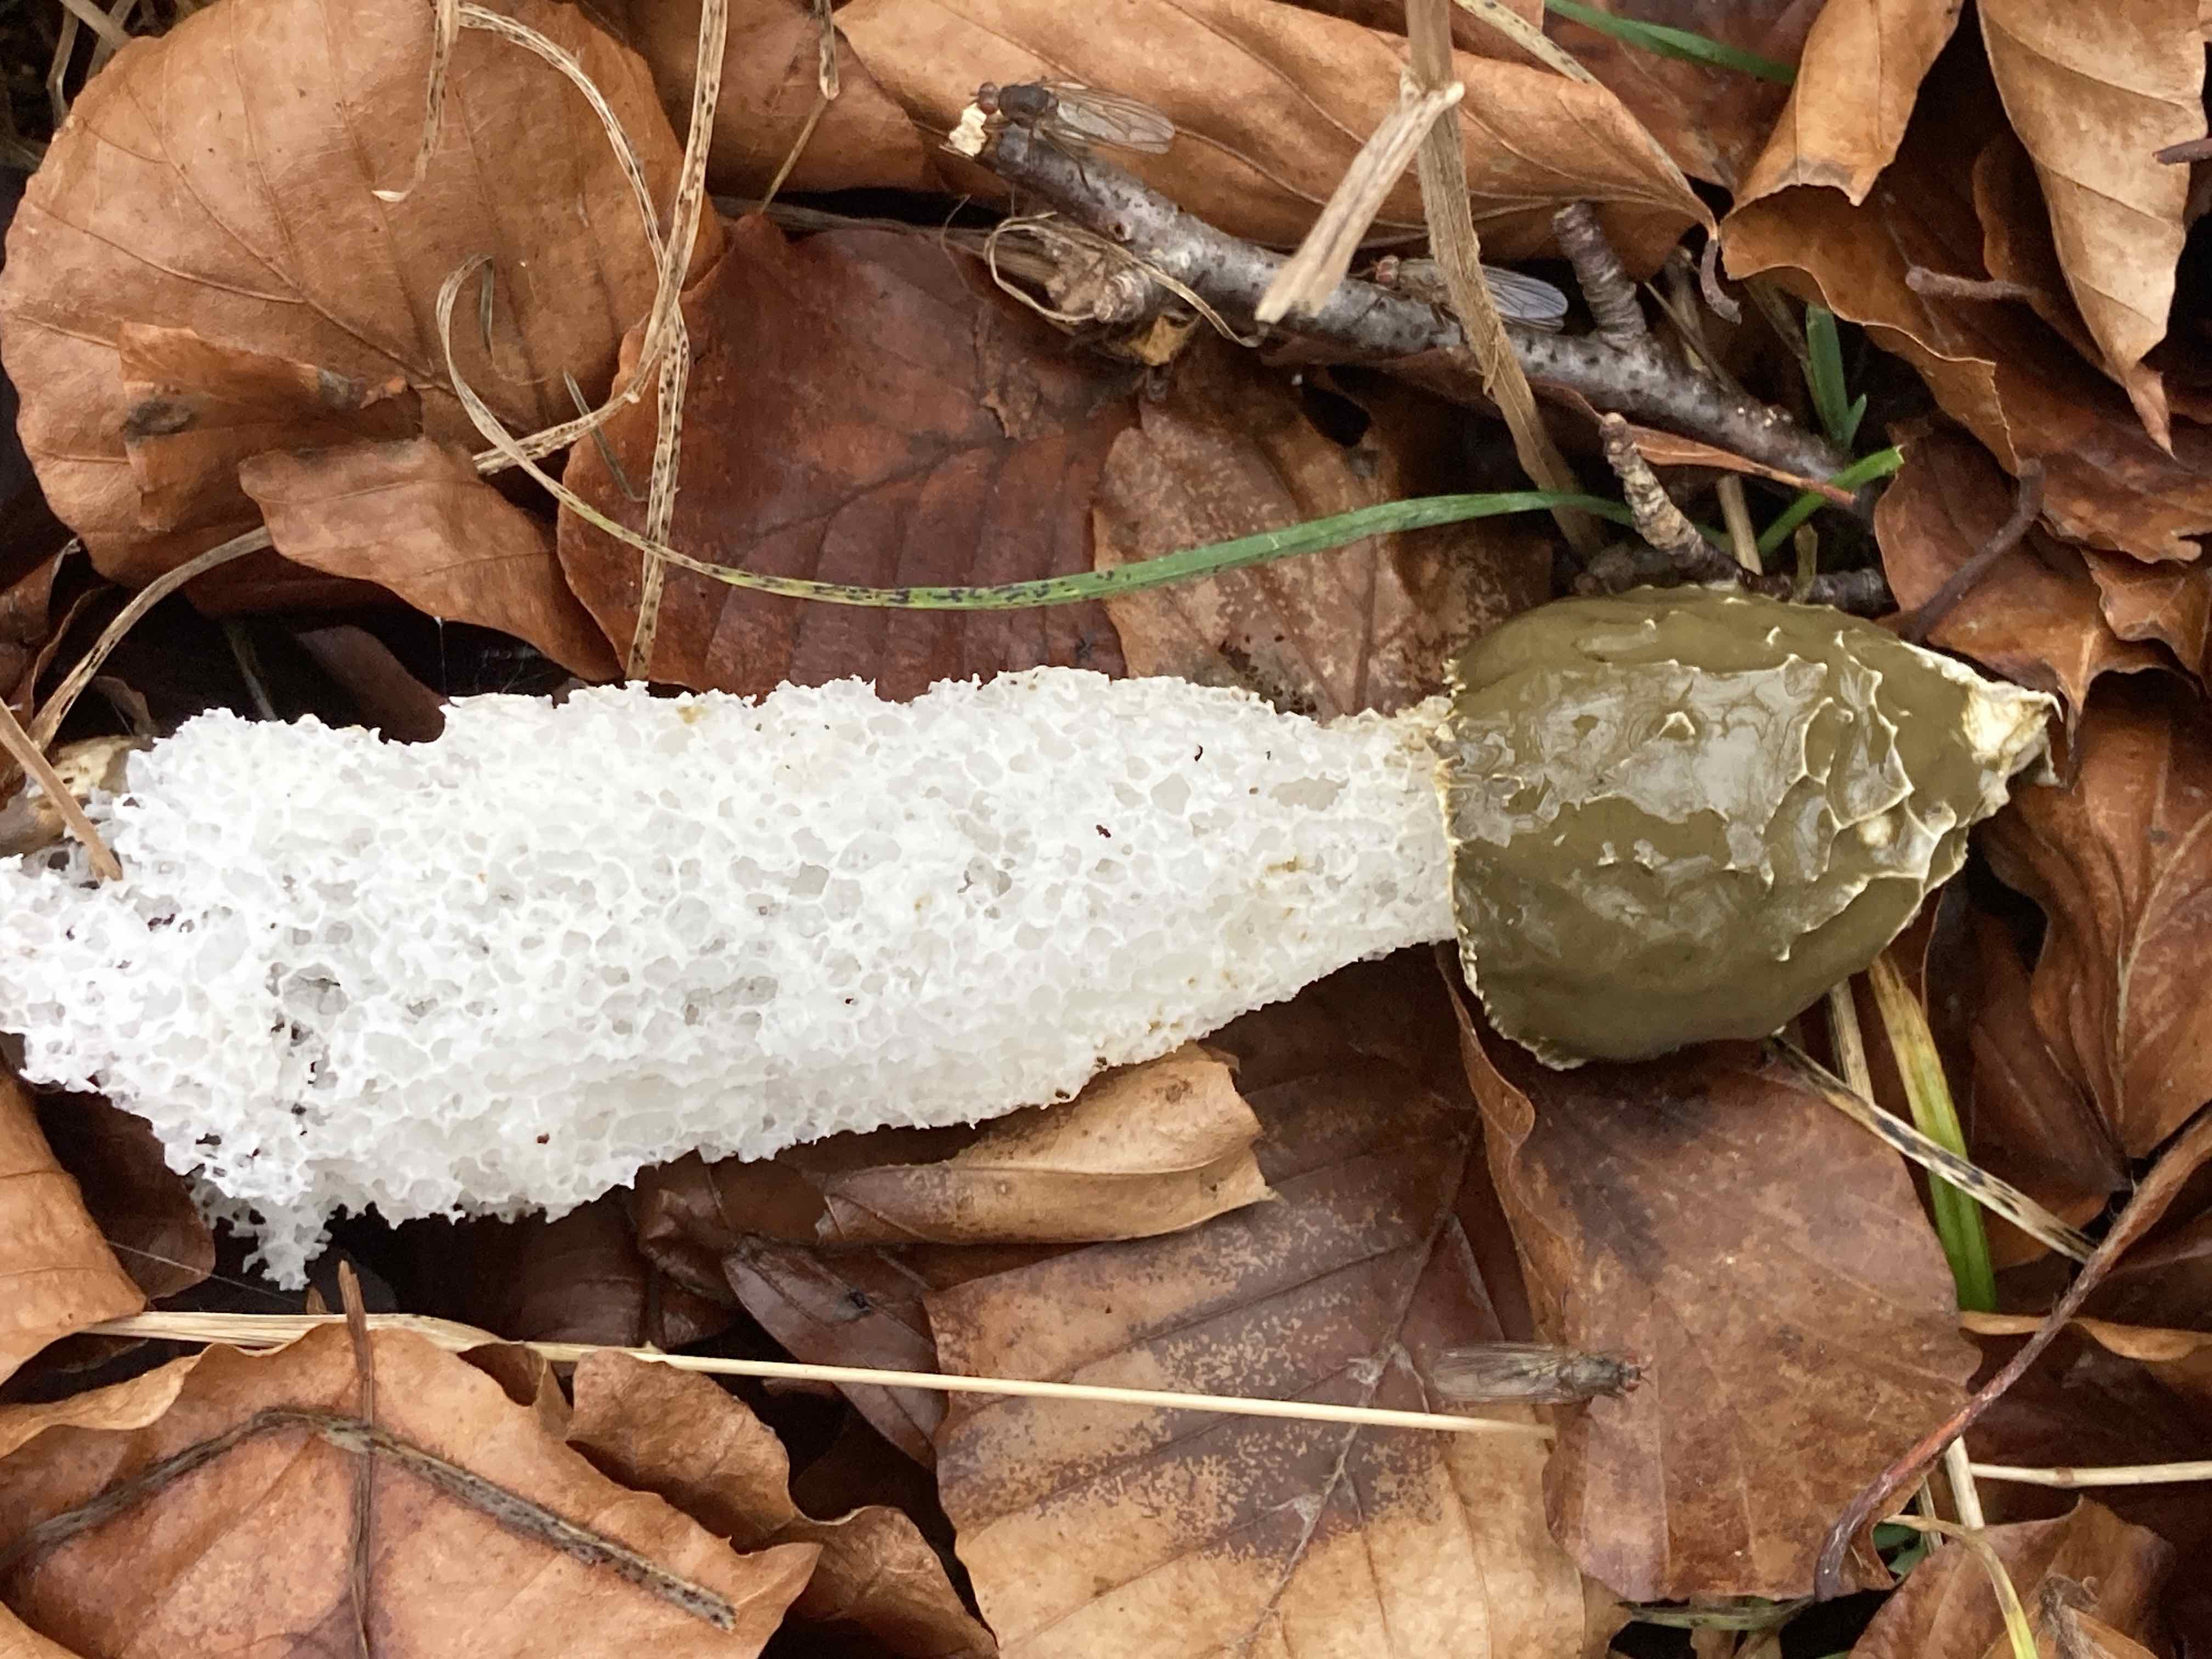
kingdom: Fungi
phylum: Basidiomycota
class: Agaricomycetes
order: Phallales
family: Phallaceae
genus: Phallus
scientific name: Phallus impudicus
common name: almindelig stinksvamp
